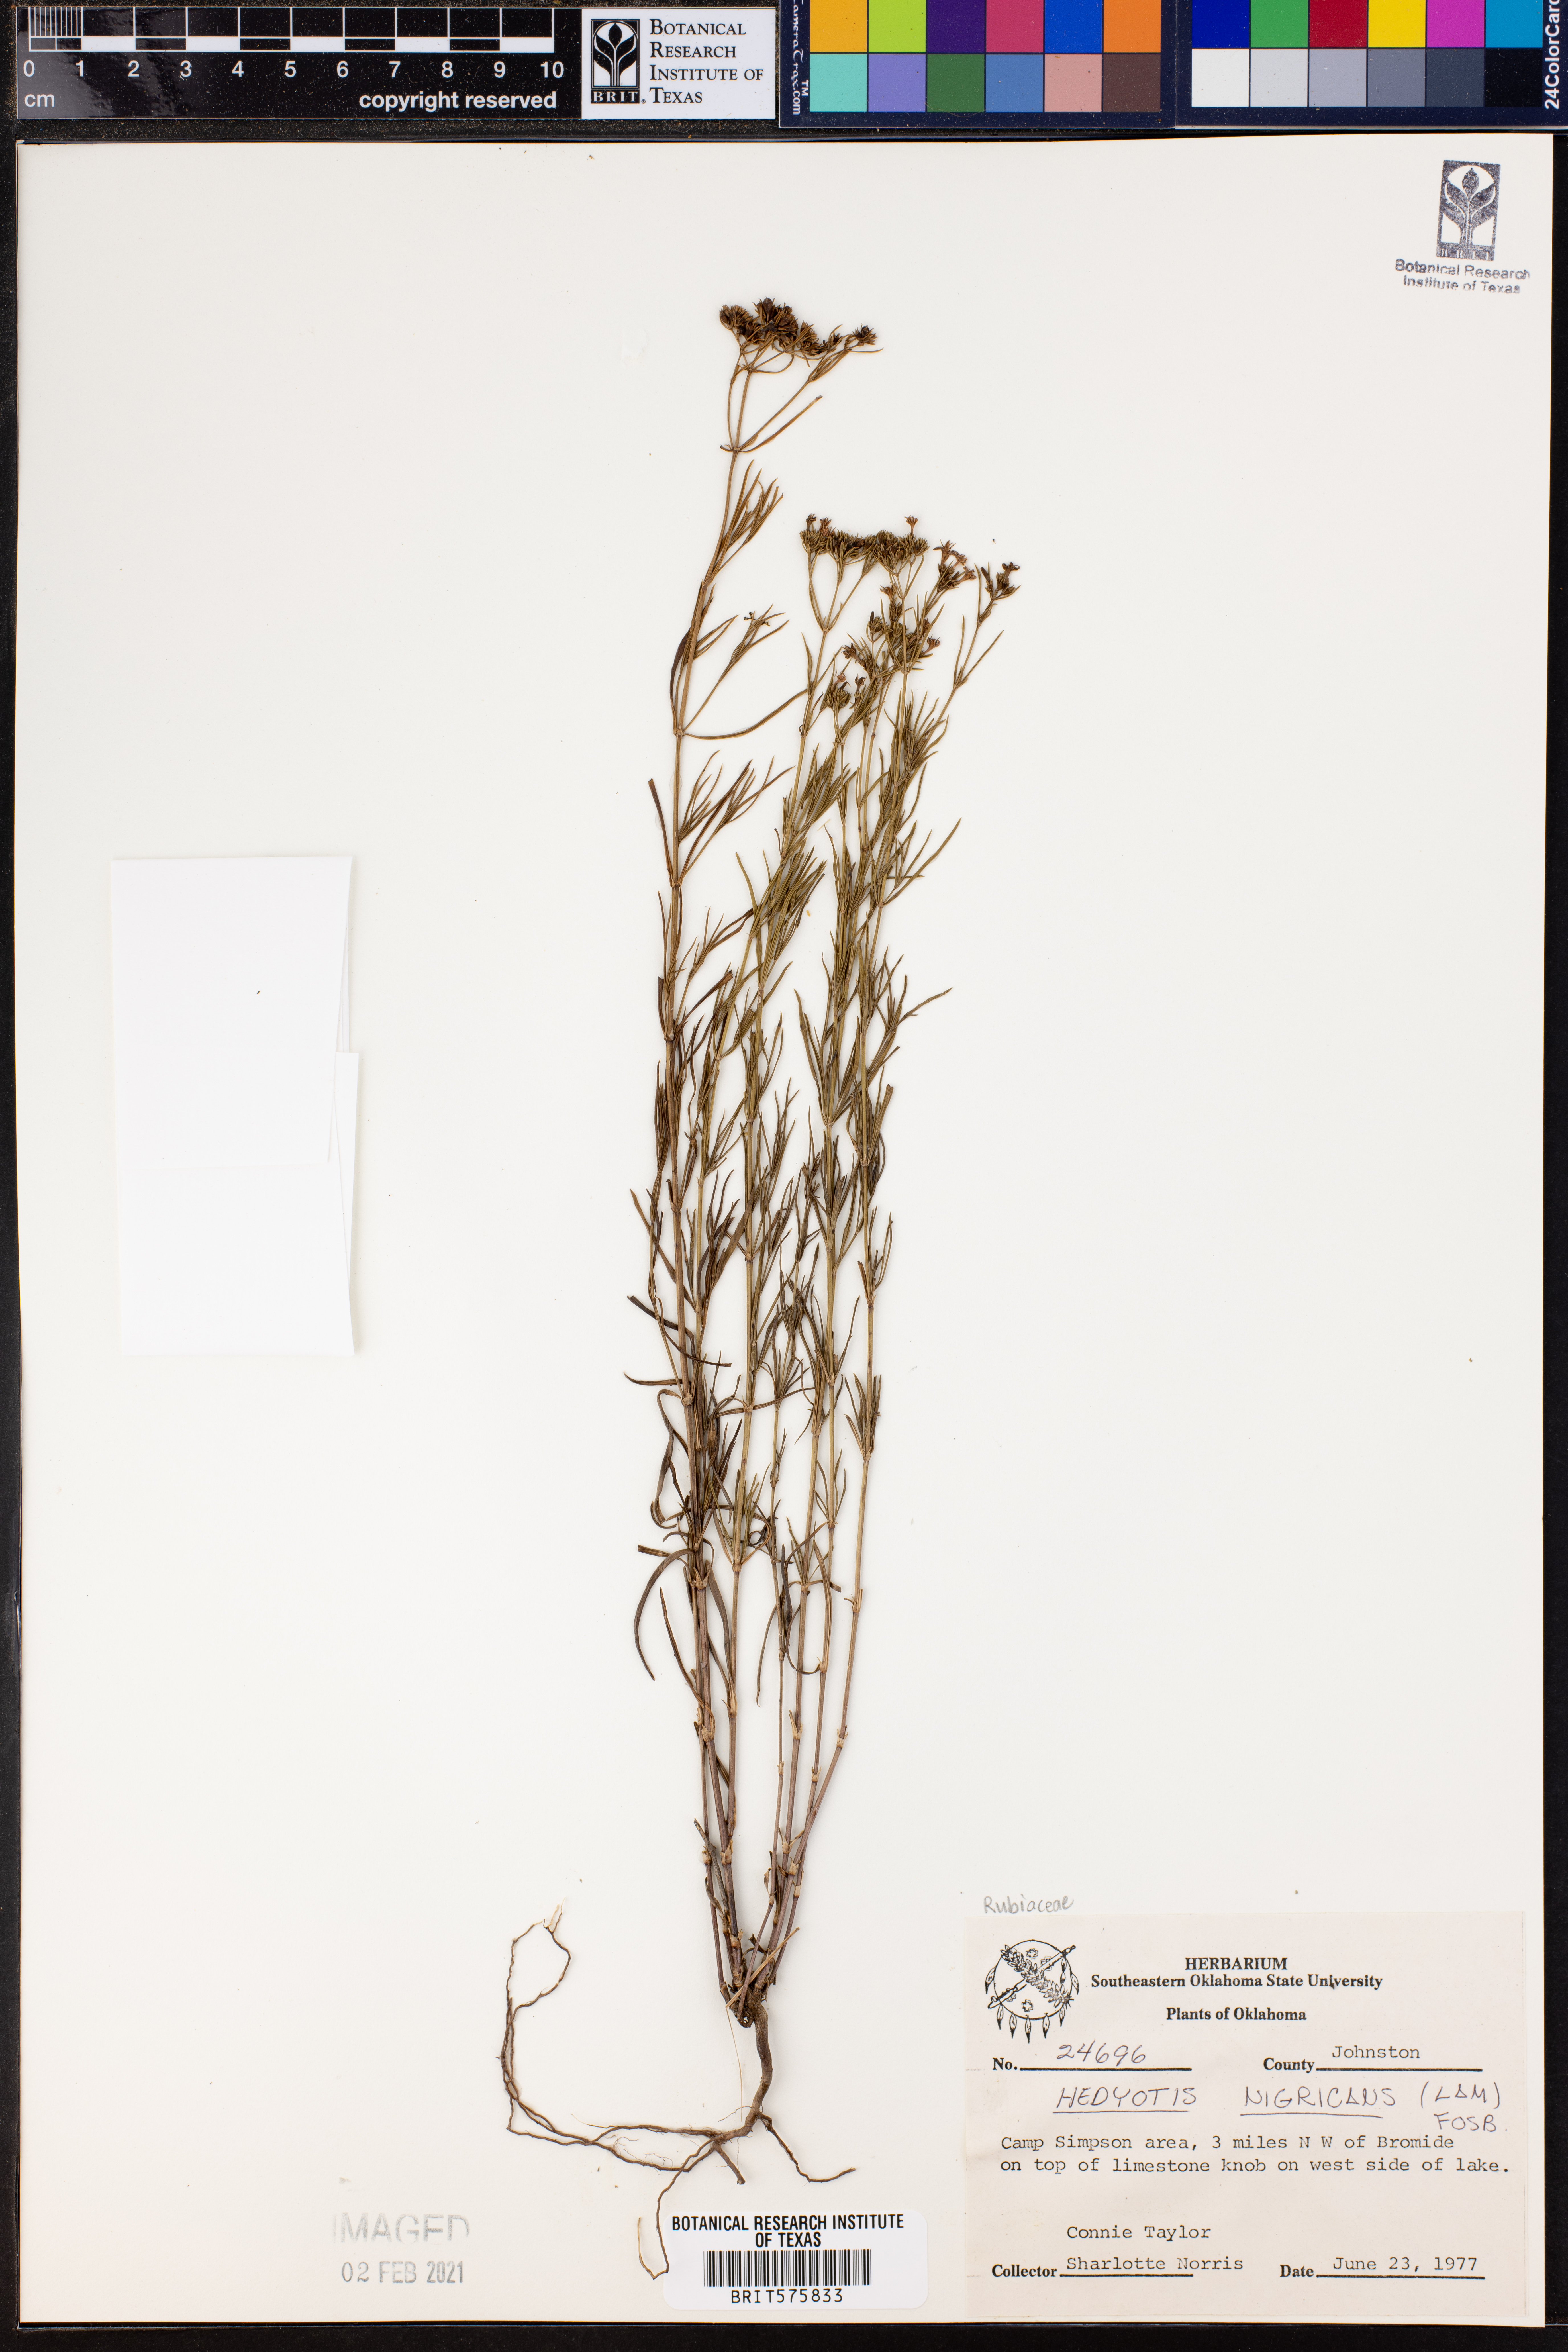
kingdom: Plantae
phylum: Tracheophyta
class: Magnoliopsida
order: Gentianales
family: Rubiaceae
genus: Stenaria
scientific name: Stenaria nigricans
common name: Diamondflowers
